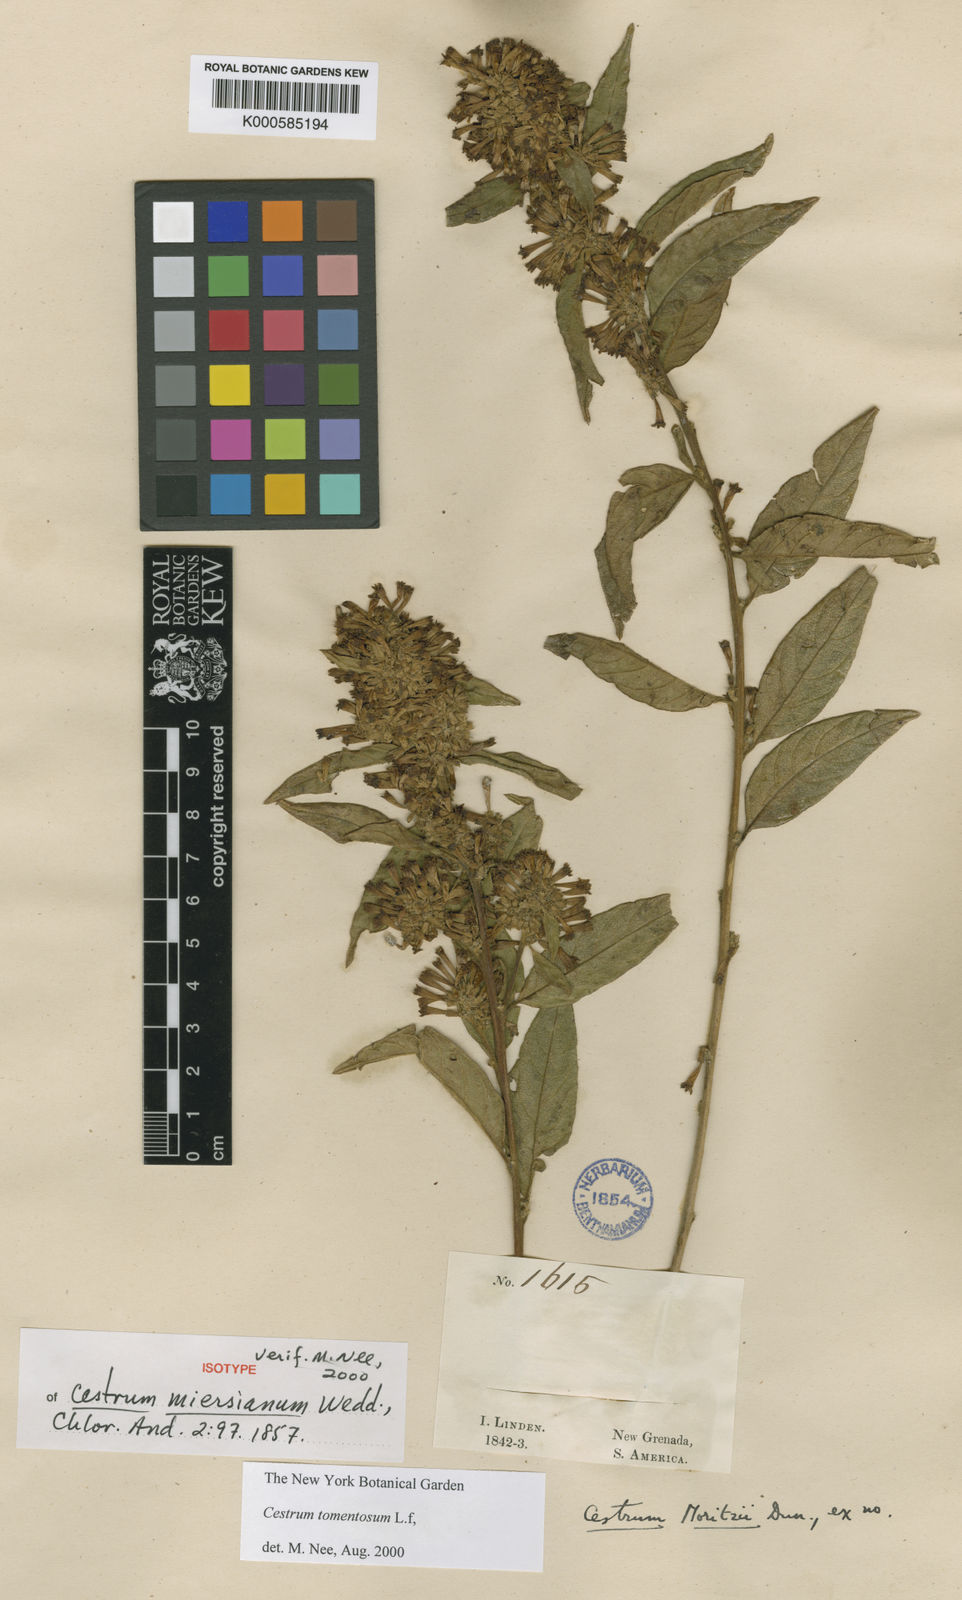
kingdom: Plantae
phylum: Tracheophyta
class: Magnoliopsida
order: Solanales
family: Solanaceae
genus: Cestrum
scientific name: Cestrum tomentosum
